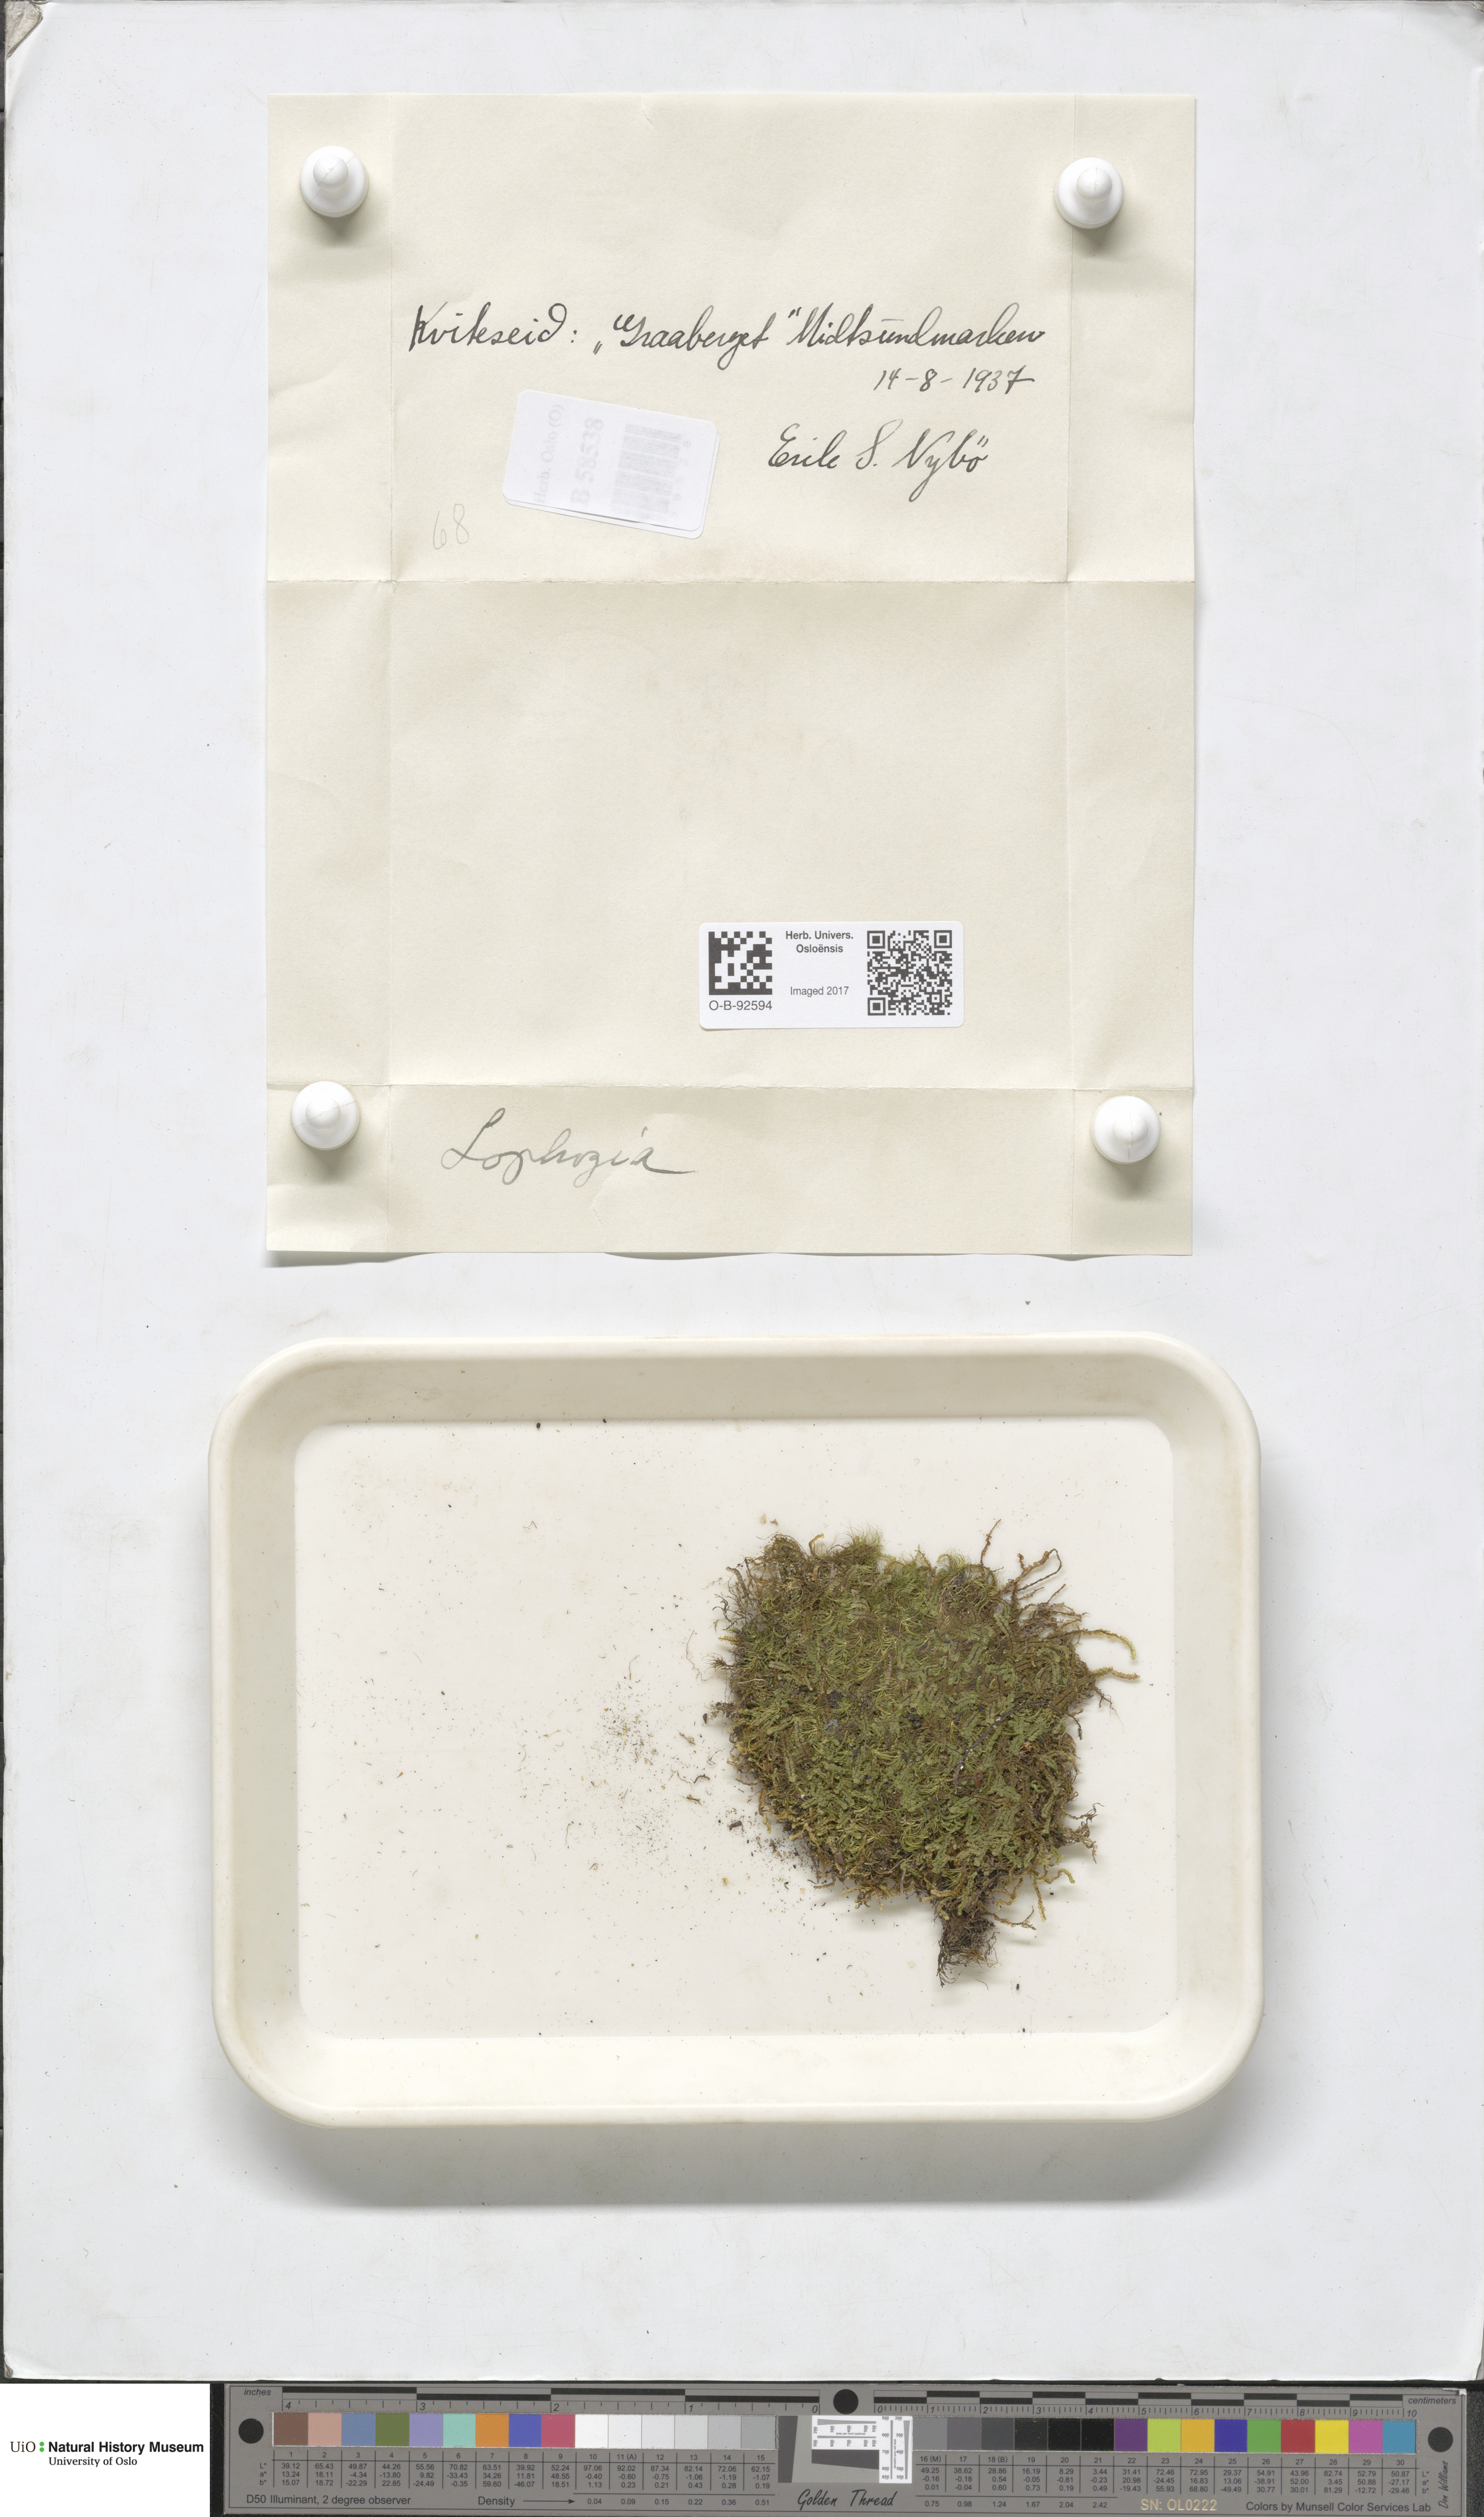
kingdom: Plantae
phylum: Marchantiophyta
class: Jungermanniopsida
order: Jungermanniales
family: Lophoziaceae
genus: Lophozia
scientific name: Lophozia
